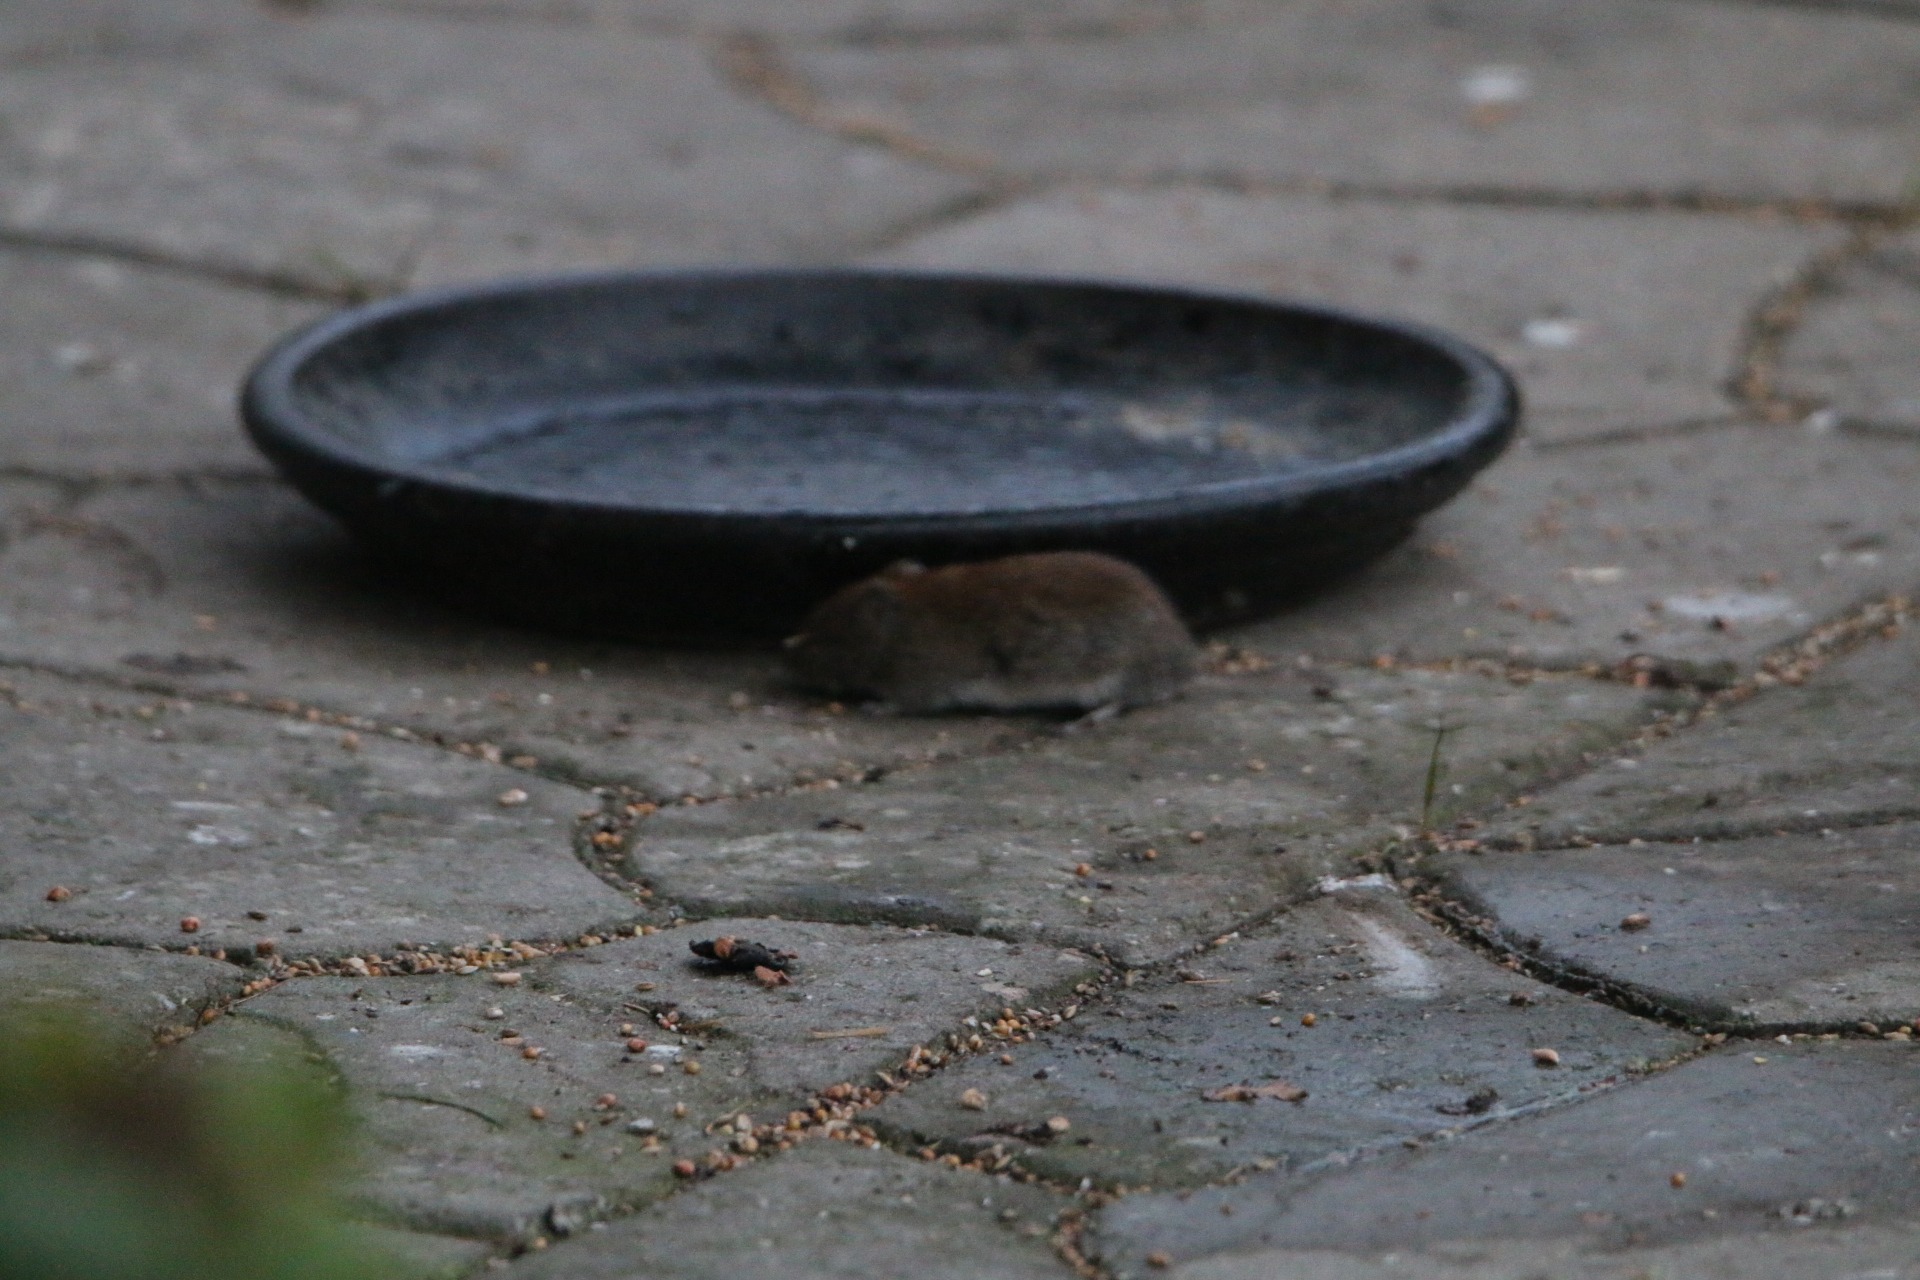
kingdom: Animalia
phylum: Chordata
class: Mammalia
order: Rodentia
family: Cricetidae
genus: Myodes
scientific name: Myodes glareolus
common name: Rødmus
